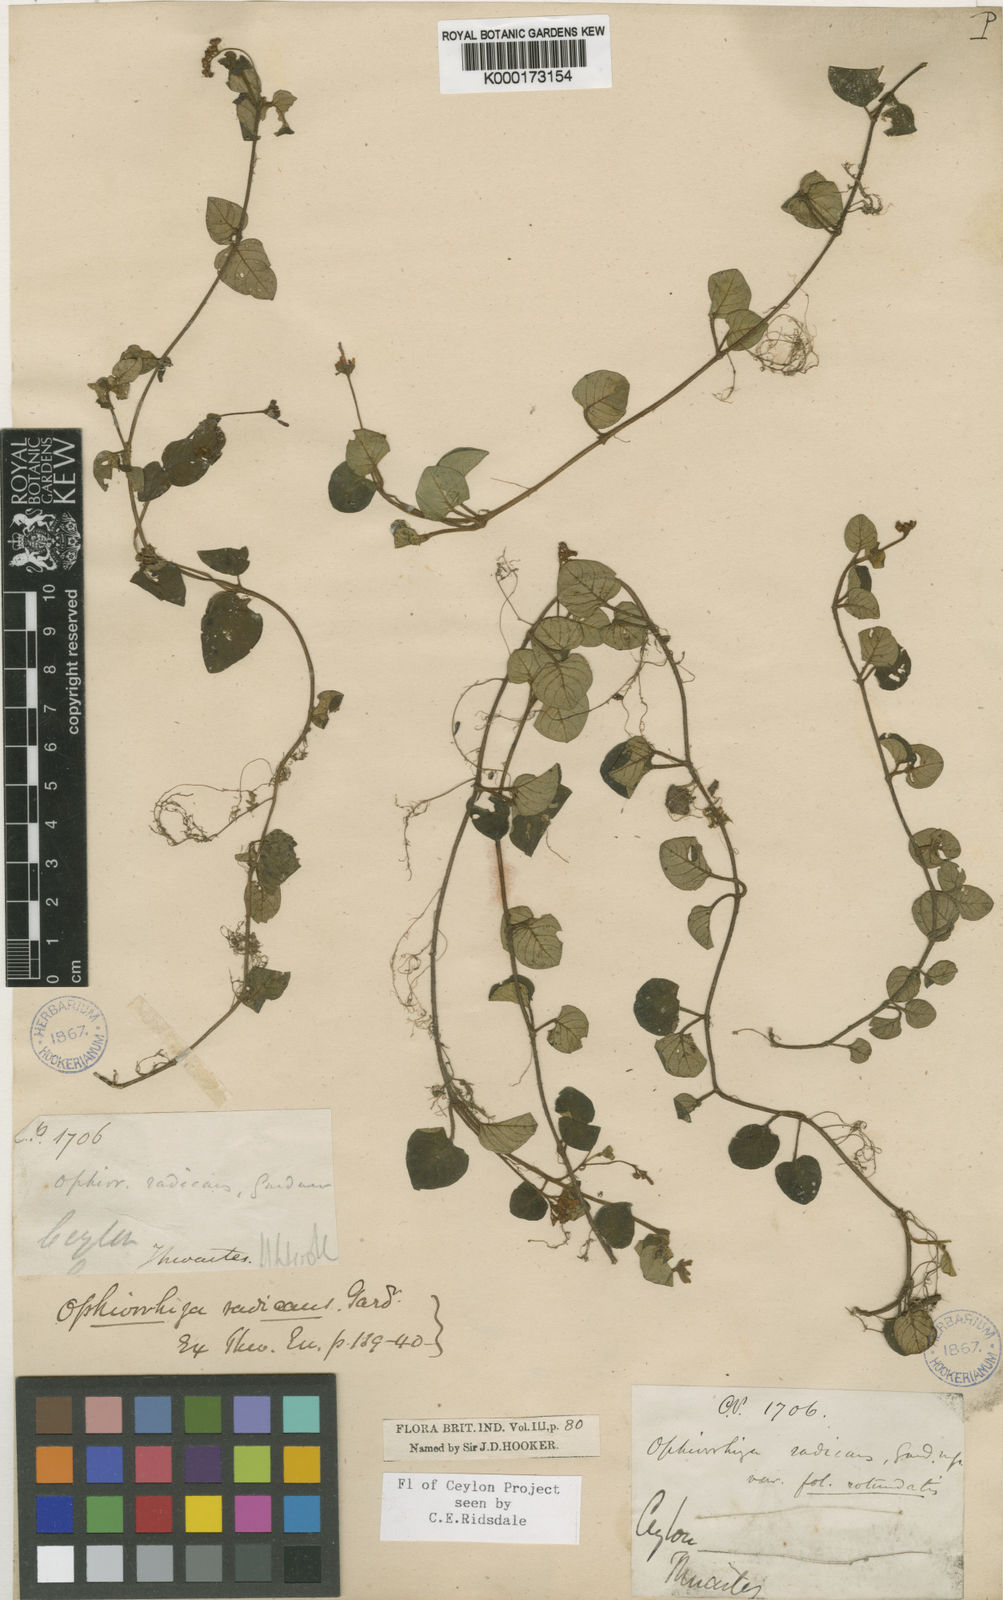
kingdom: Plantae
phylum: Tracheophyta
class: Magnoliopsida
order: Gentianales
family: Rubiaceae
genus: Ophiorrhiza
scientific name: Ophiorrhiza radicans
